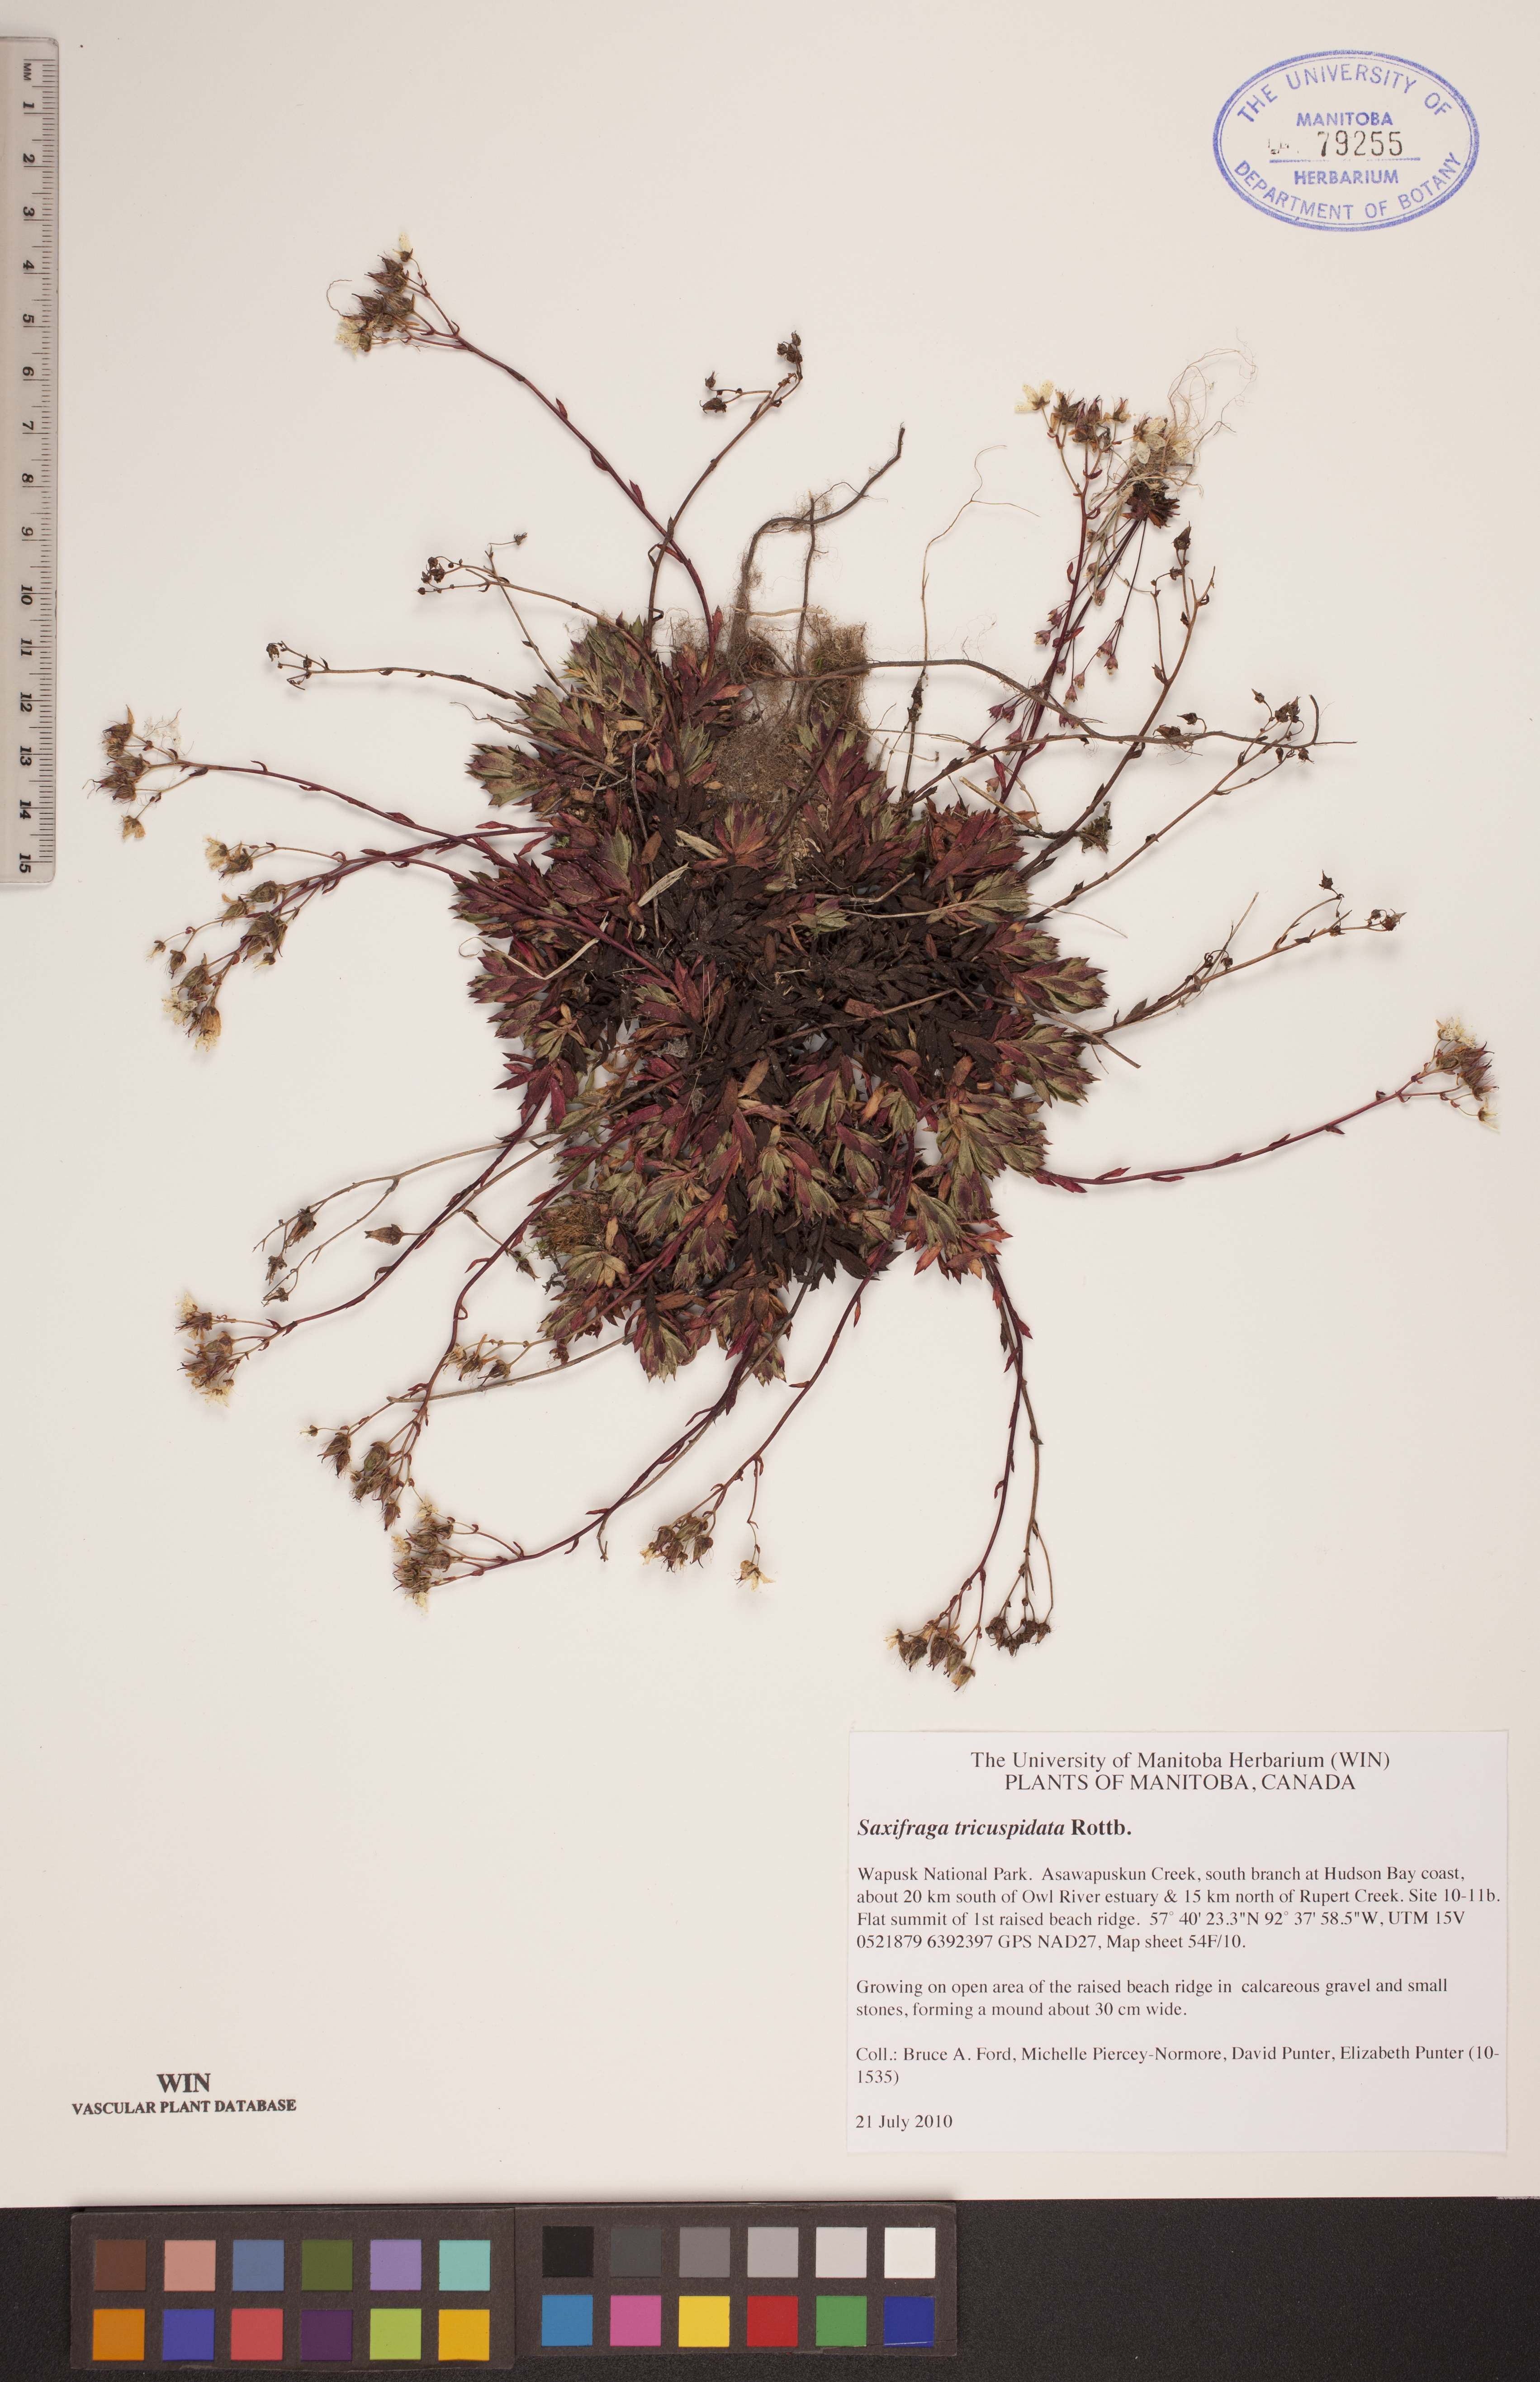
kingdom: Plantae
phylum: Tracheophyta
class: Magnoliopsida
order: Saxifragales
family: Saxifragaceae
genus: Saxifraga
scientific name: Saxifraga tricuspidata
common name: Prickly saxifrage
